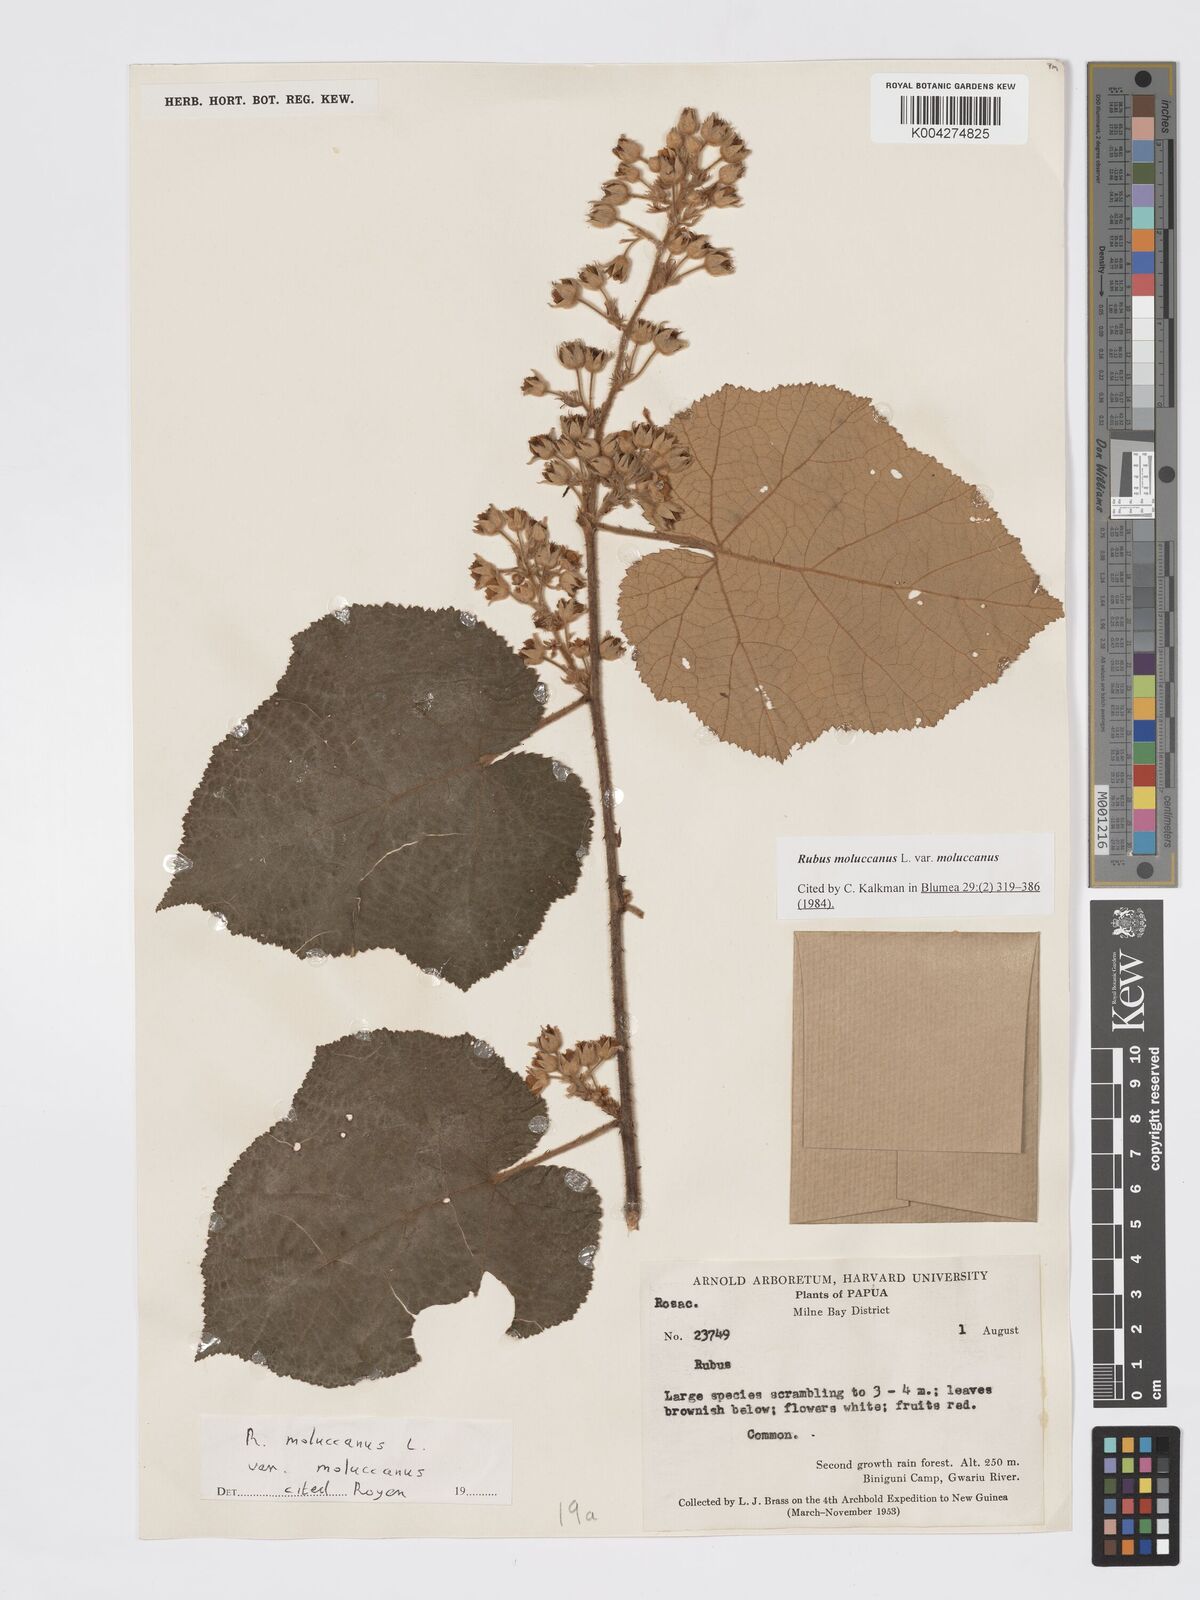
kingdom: Plantae
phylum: Tracheophyta
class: Magnoliopsida
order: Rosales
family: Rosaceae
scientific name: Rosaceae
